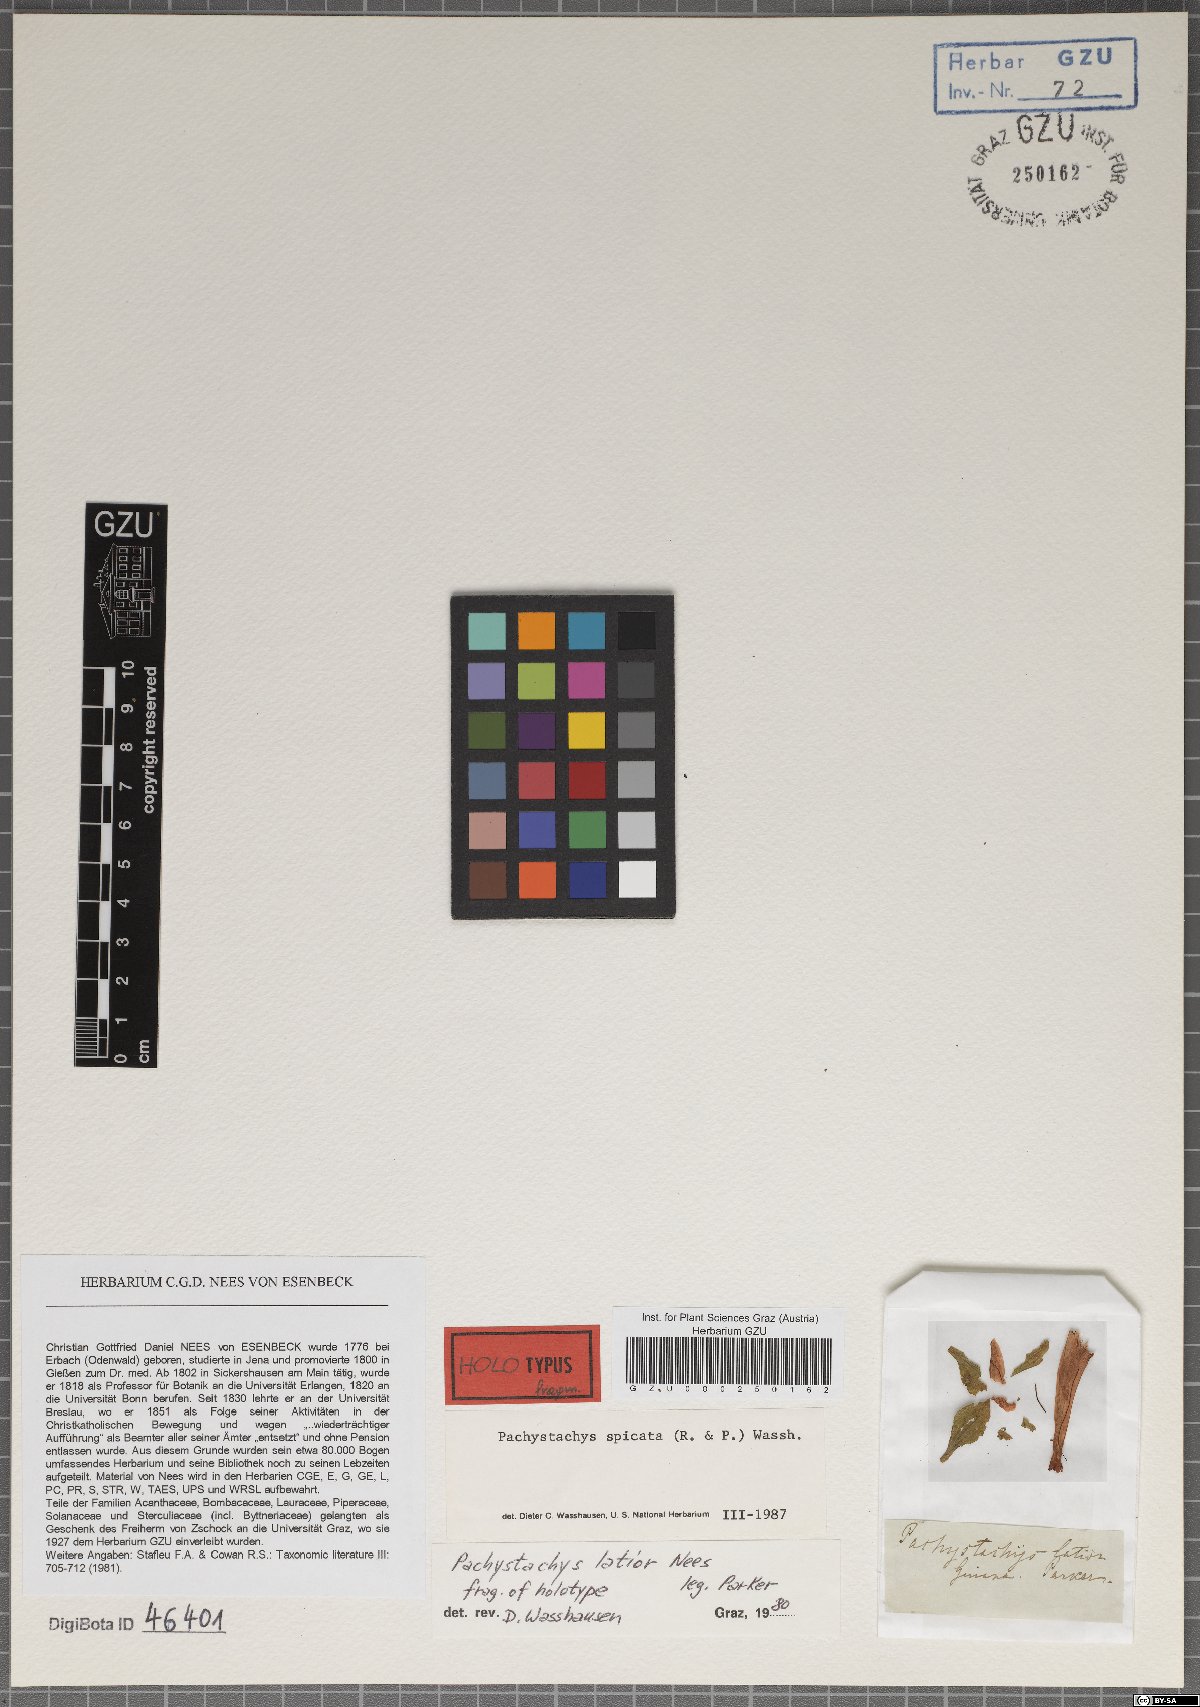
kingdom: Plantae
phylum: Tracheophyta
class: Magnoliopsida
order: Lamiales
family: Acanthaceae
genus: Pachystachys
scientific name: Pachystachys coccinea
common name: Cardinal's-guard
